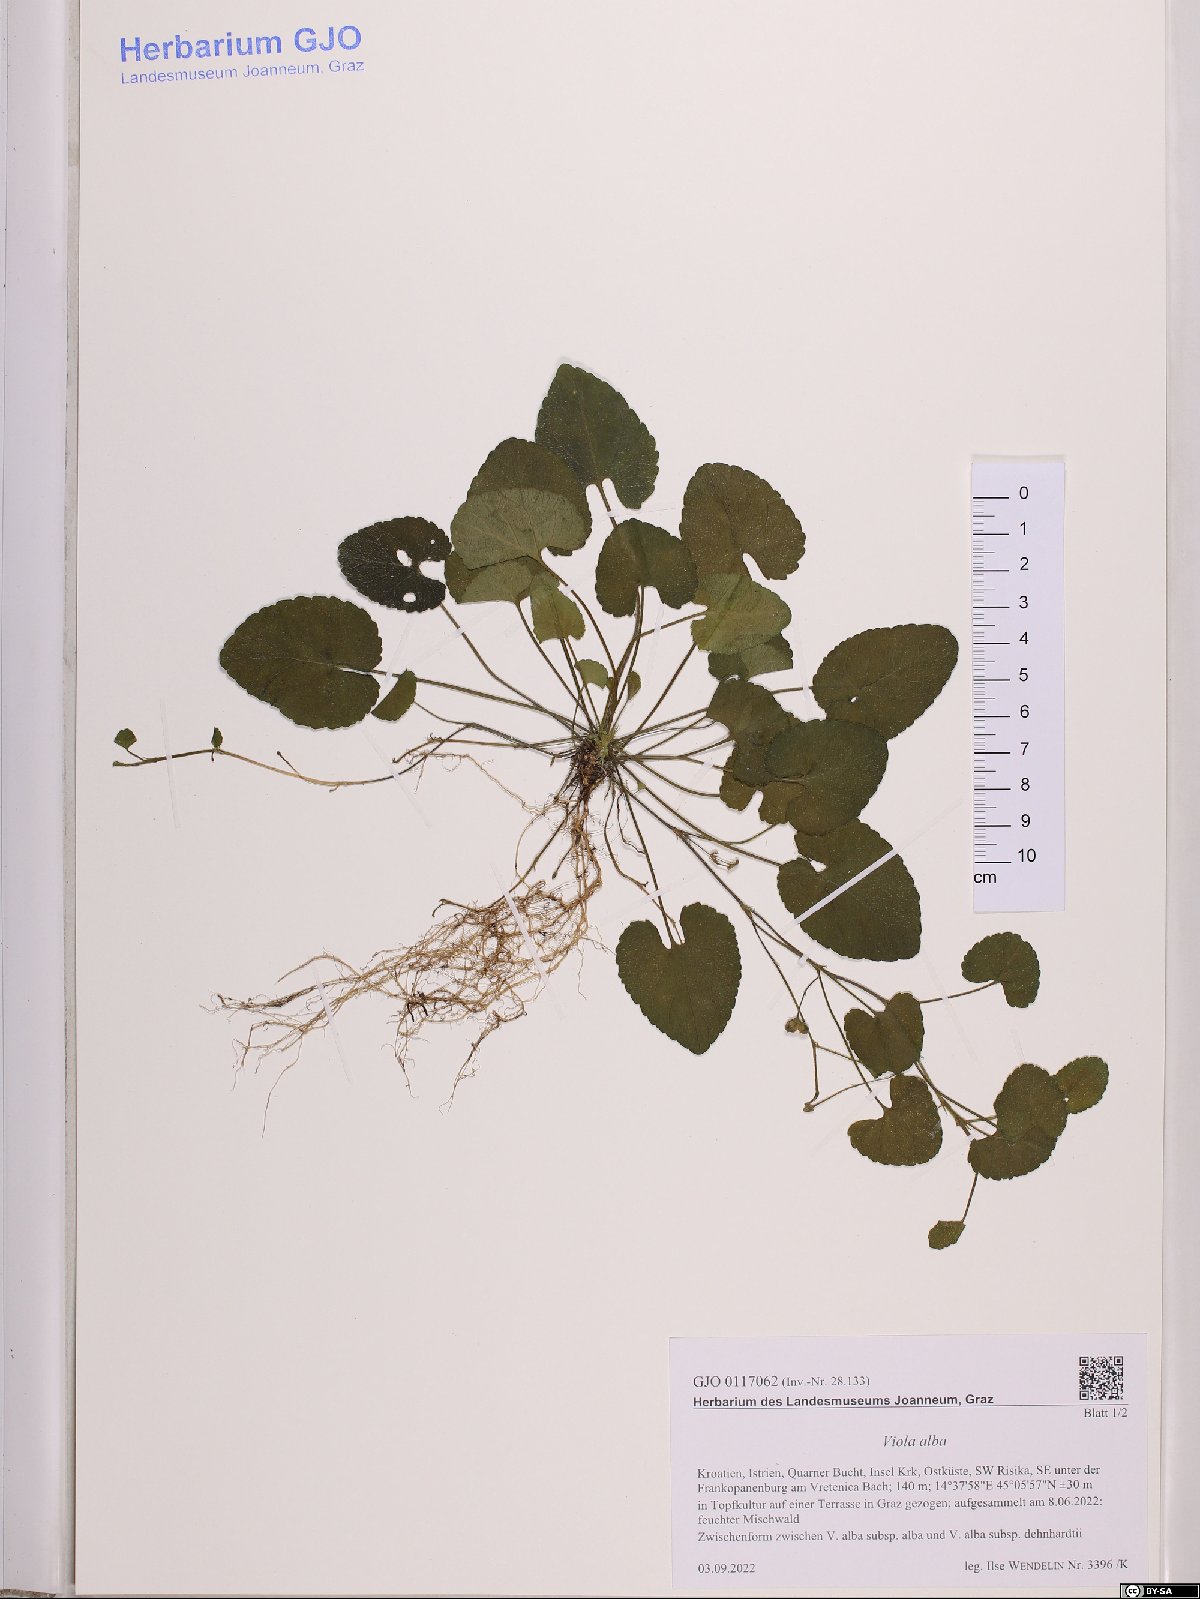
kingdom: Plantae
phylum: Tracheophyta
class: Magnoliopsida
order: Malpighiales
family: Violaceae
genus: Viola
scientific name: Viola alba
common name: White violet
